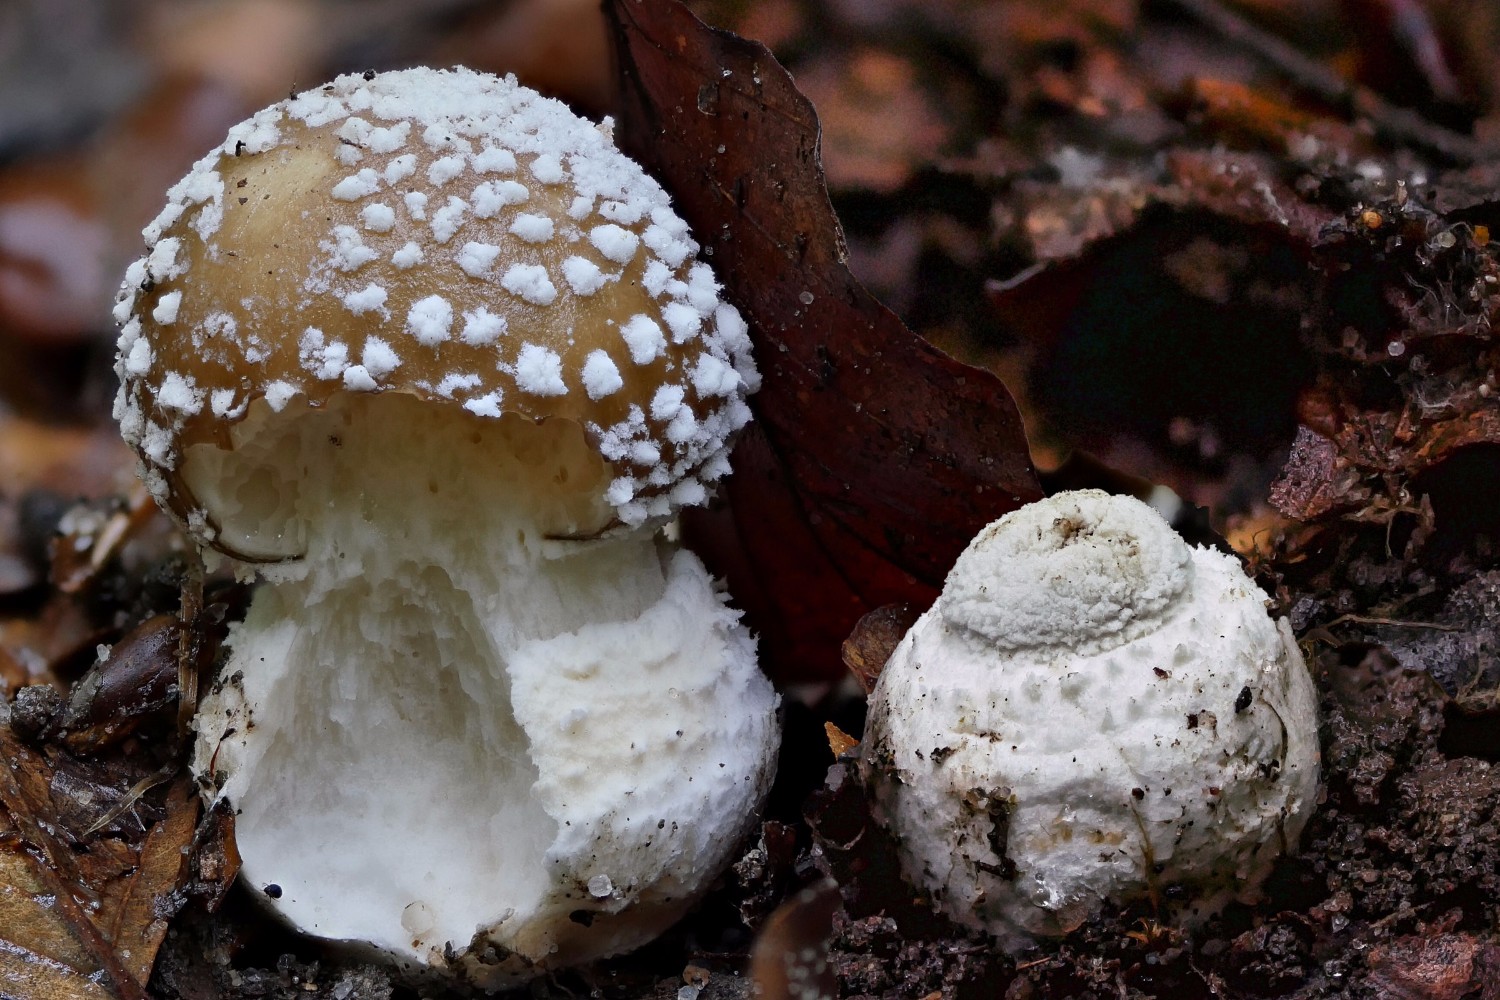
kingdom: Fungi
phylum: Basidiomycota
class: Agaricomycetes
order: Agaricales
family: Amanitaceae
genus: Amanita
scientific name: Amanita pantherina
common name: panter-fluesvamp
